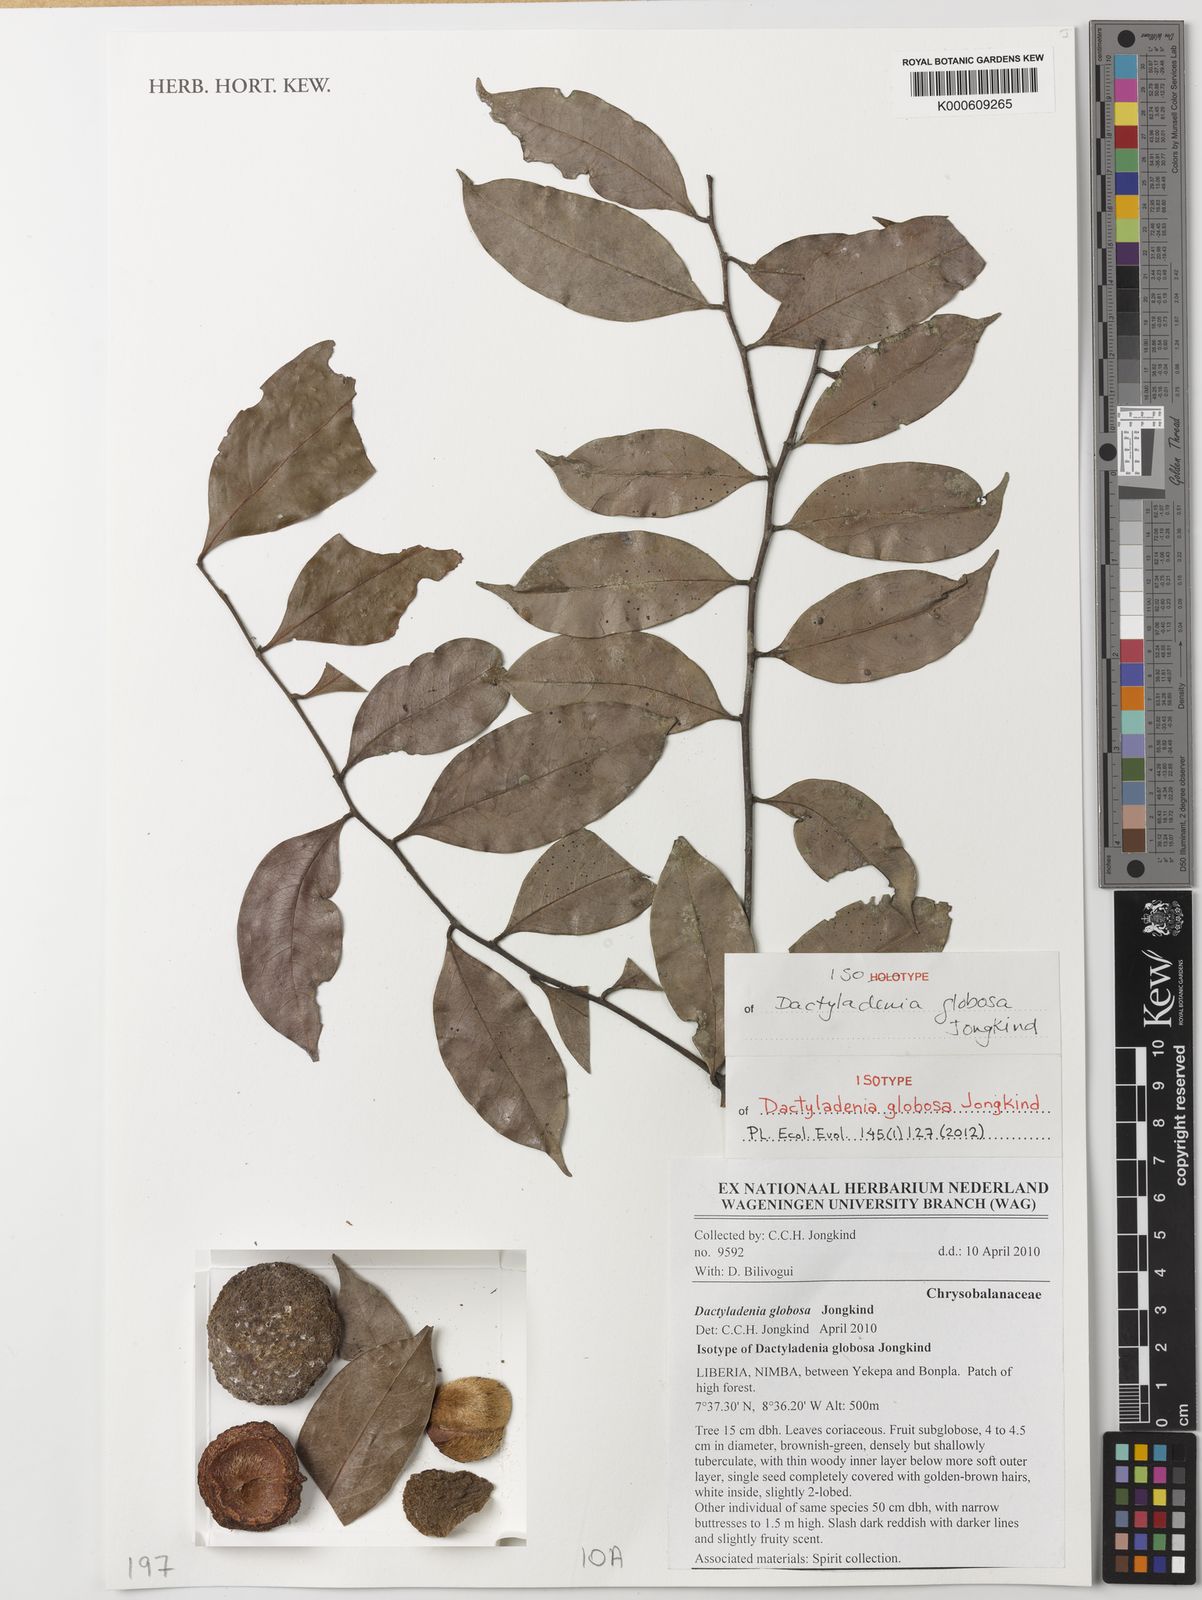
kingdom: Plantae
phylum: Tracheophyta
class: Magnoliopsida
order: Malpighiales
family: Chrysobalanaceae
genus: Dactyladenia
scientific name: Dactyladenia globosa
